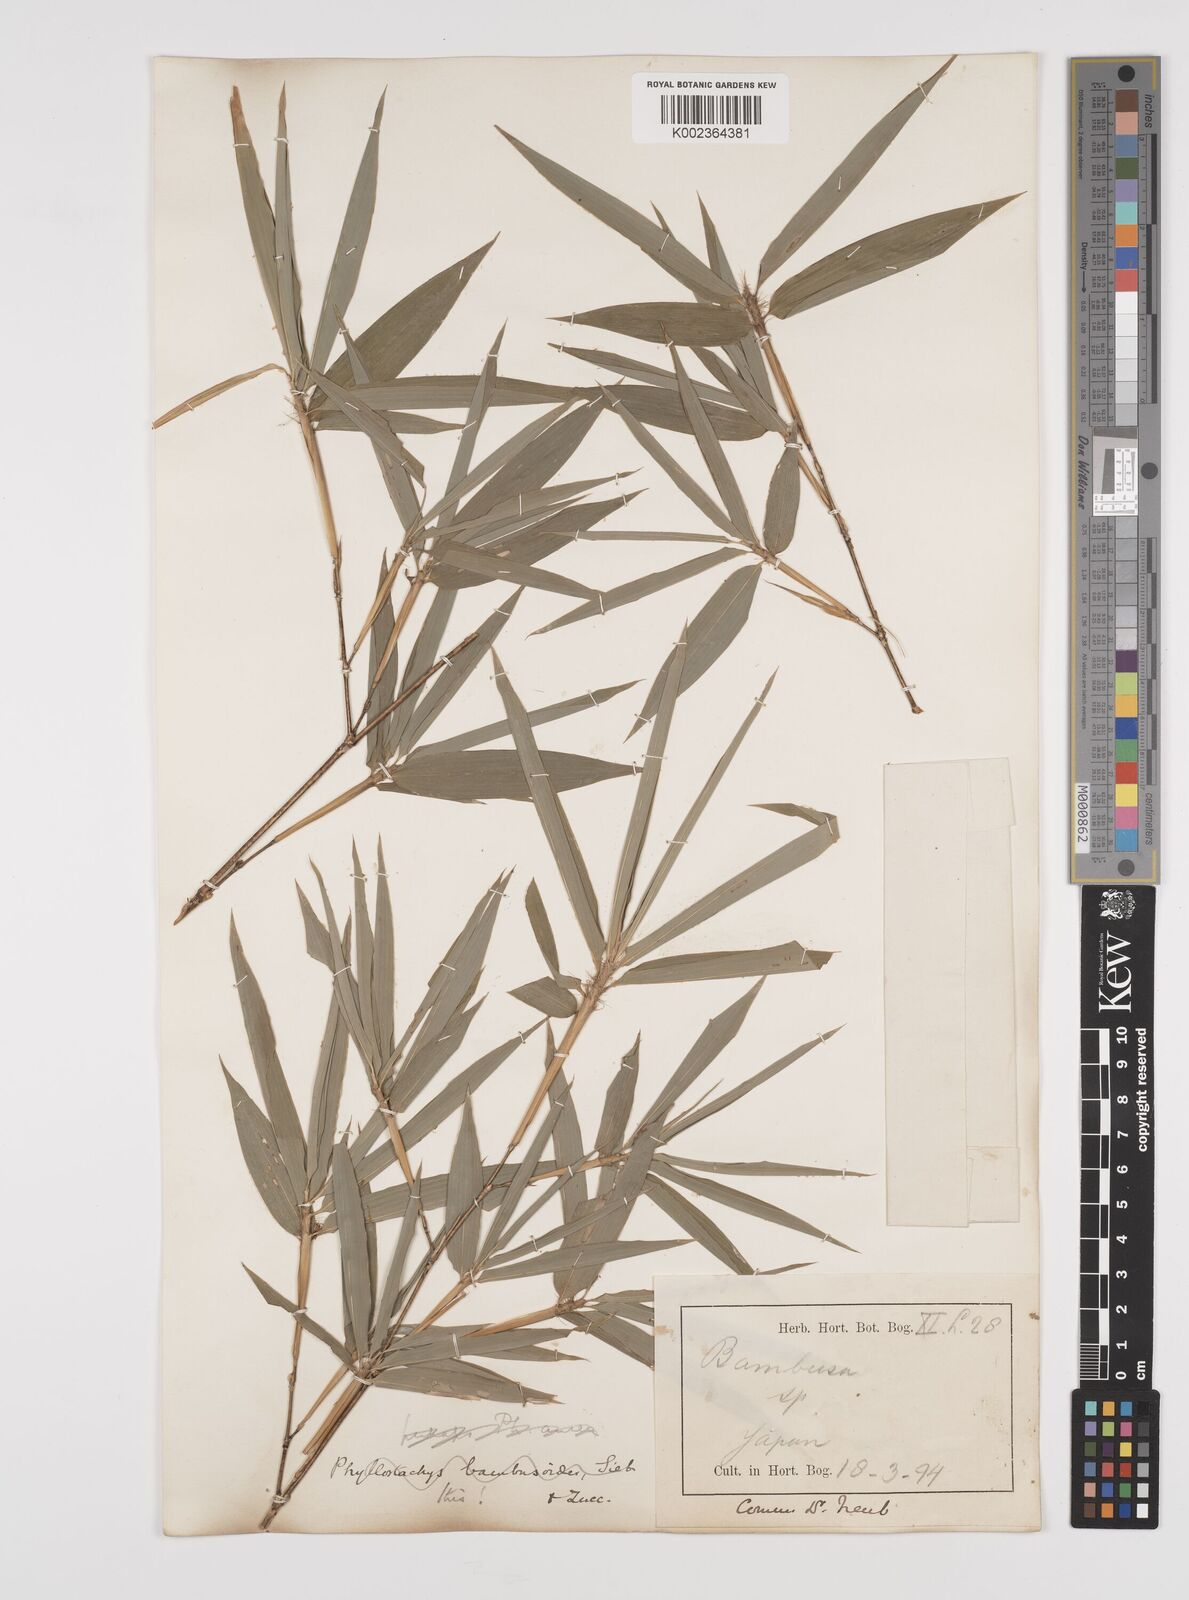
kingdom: Plantae
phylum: Tracheophyta
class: Liliopsida
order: Poales
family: Poaceae
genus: Phyllostachys
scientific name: Phyllostachys reticulata
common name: Bamboo
